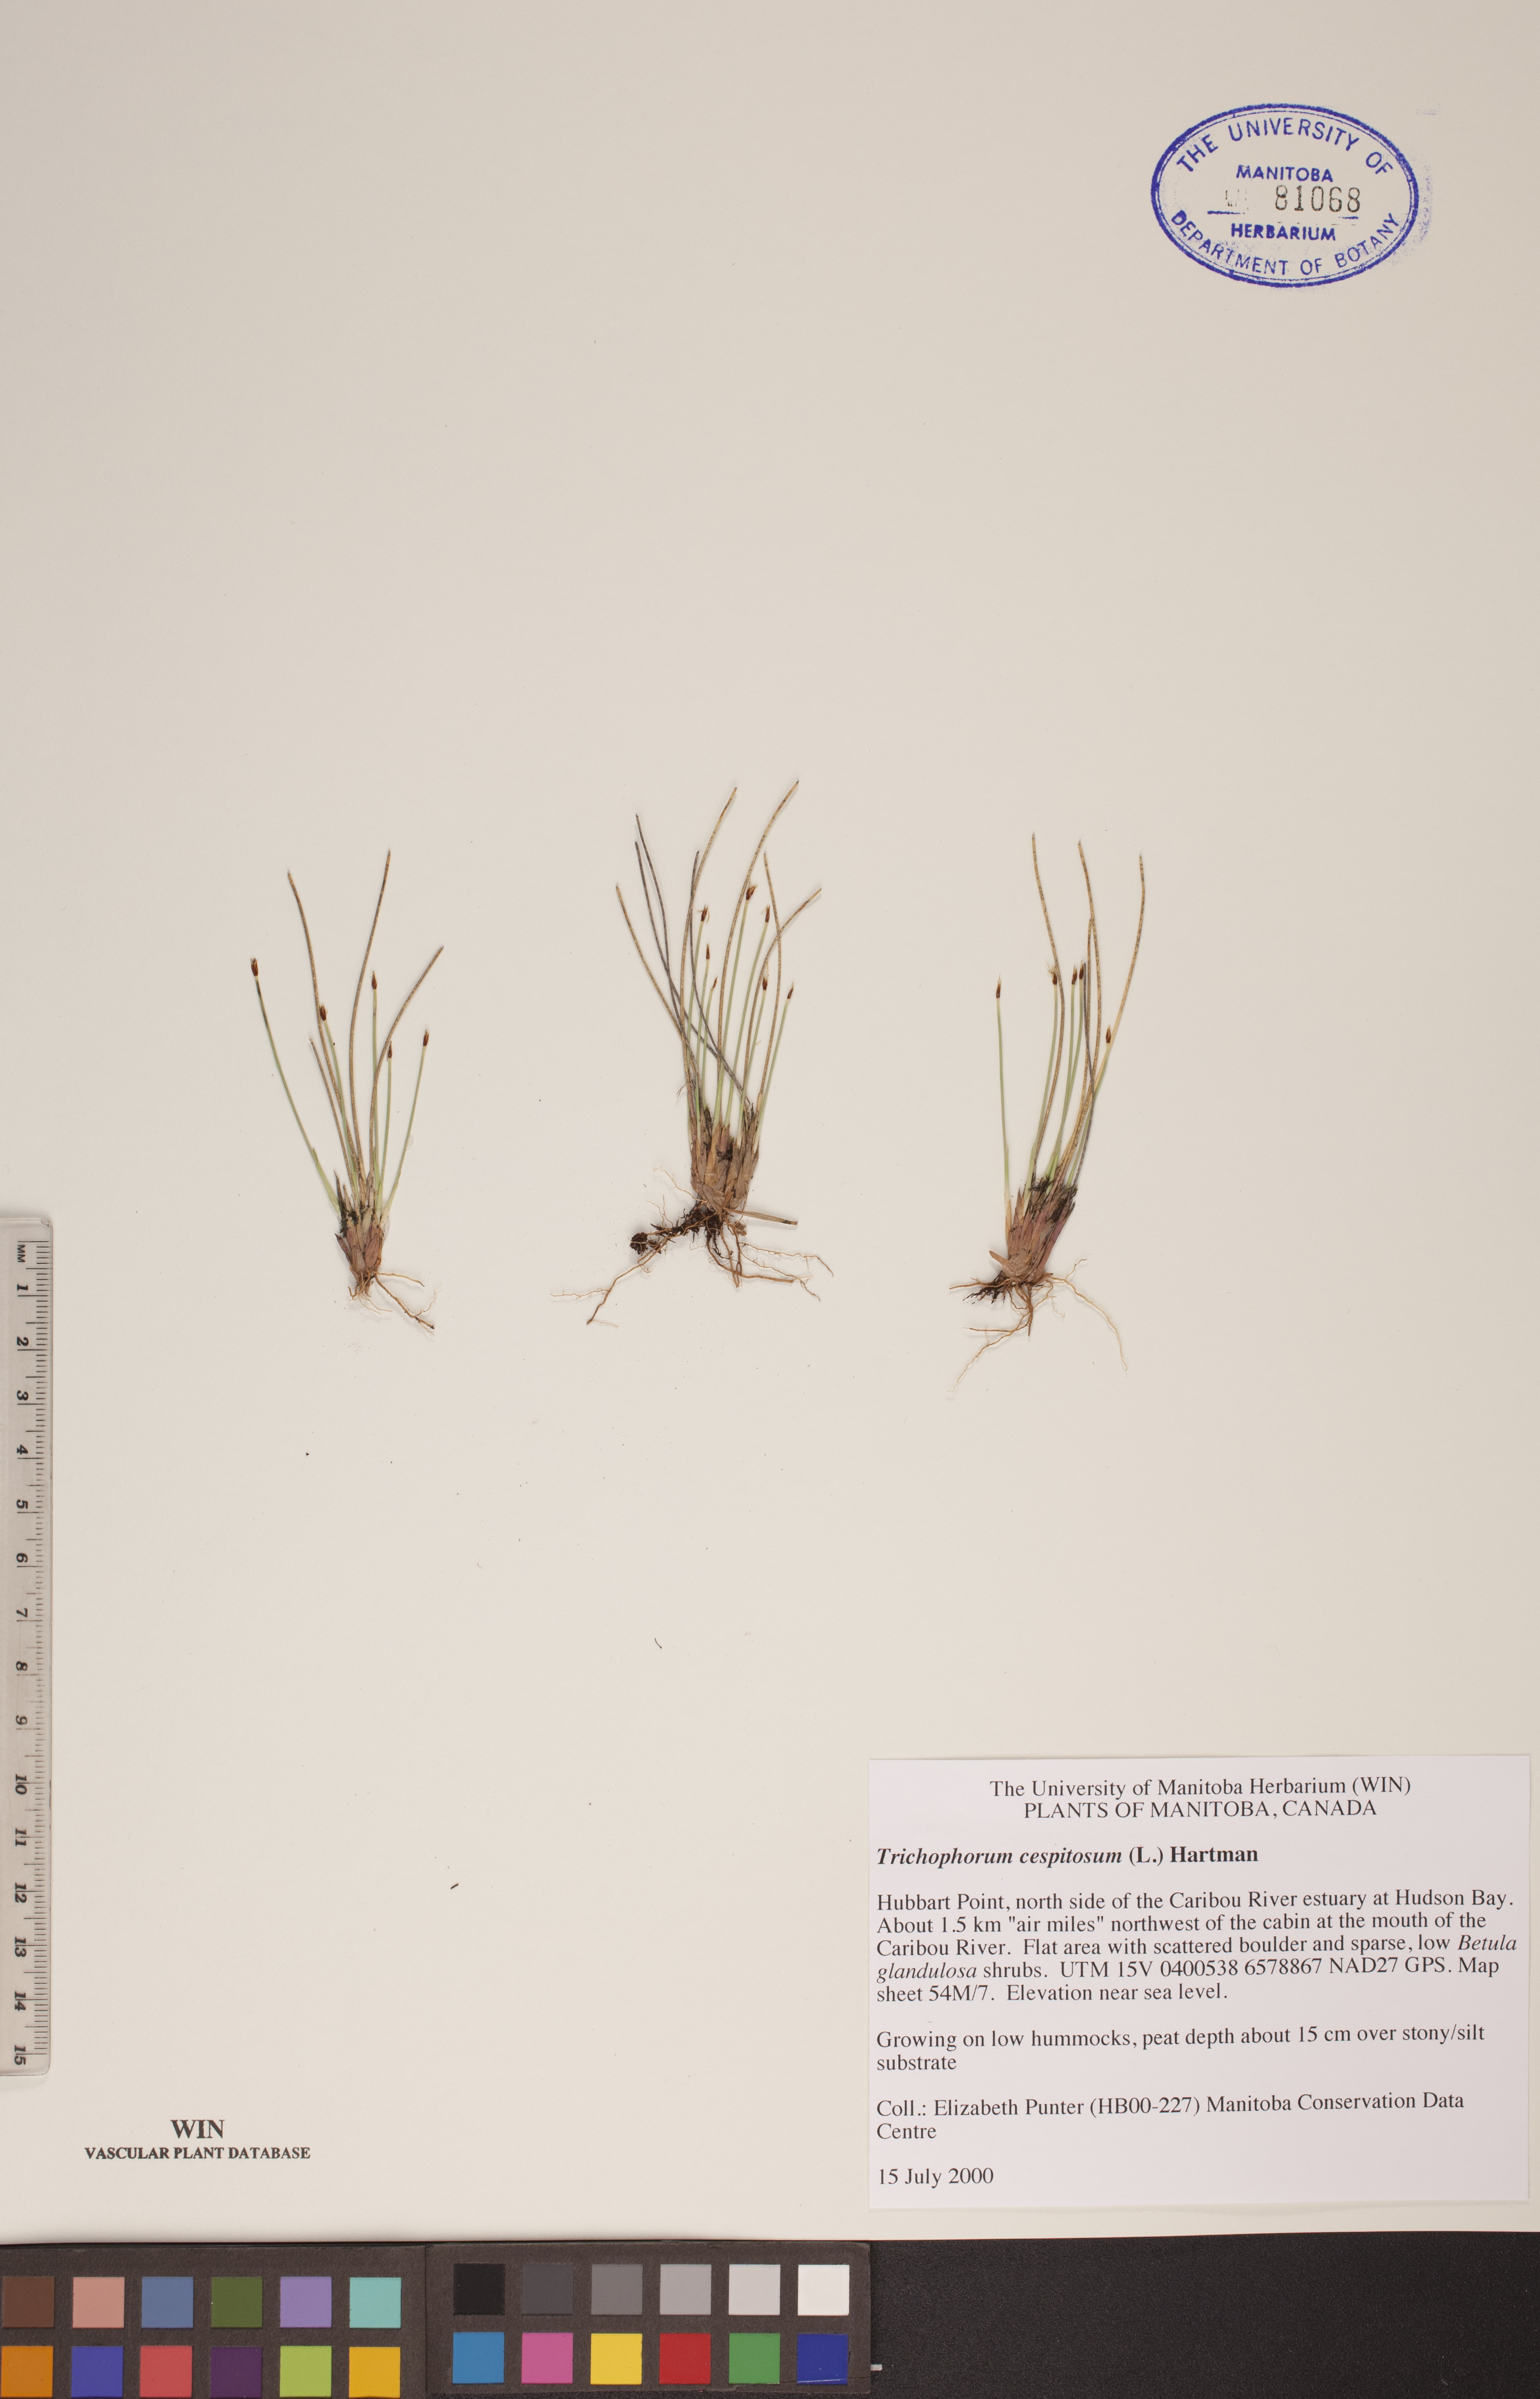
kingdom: Plantae
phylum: Tracheophyta
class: Liliopsida
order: Poales
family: Cyperaceae
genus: Trichophorum
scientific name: Trichophorum cespitosum
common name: Cespitose bulrush
